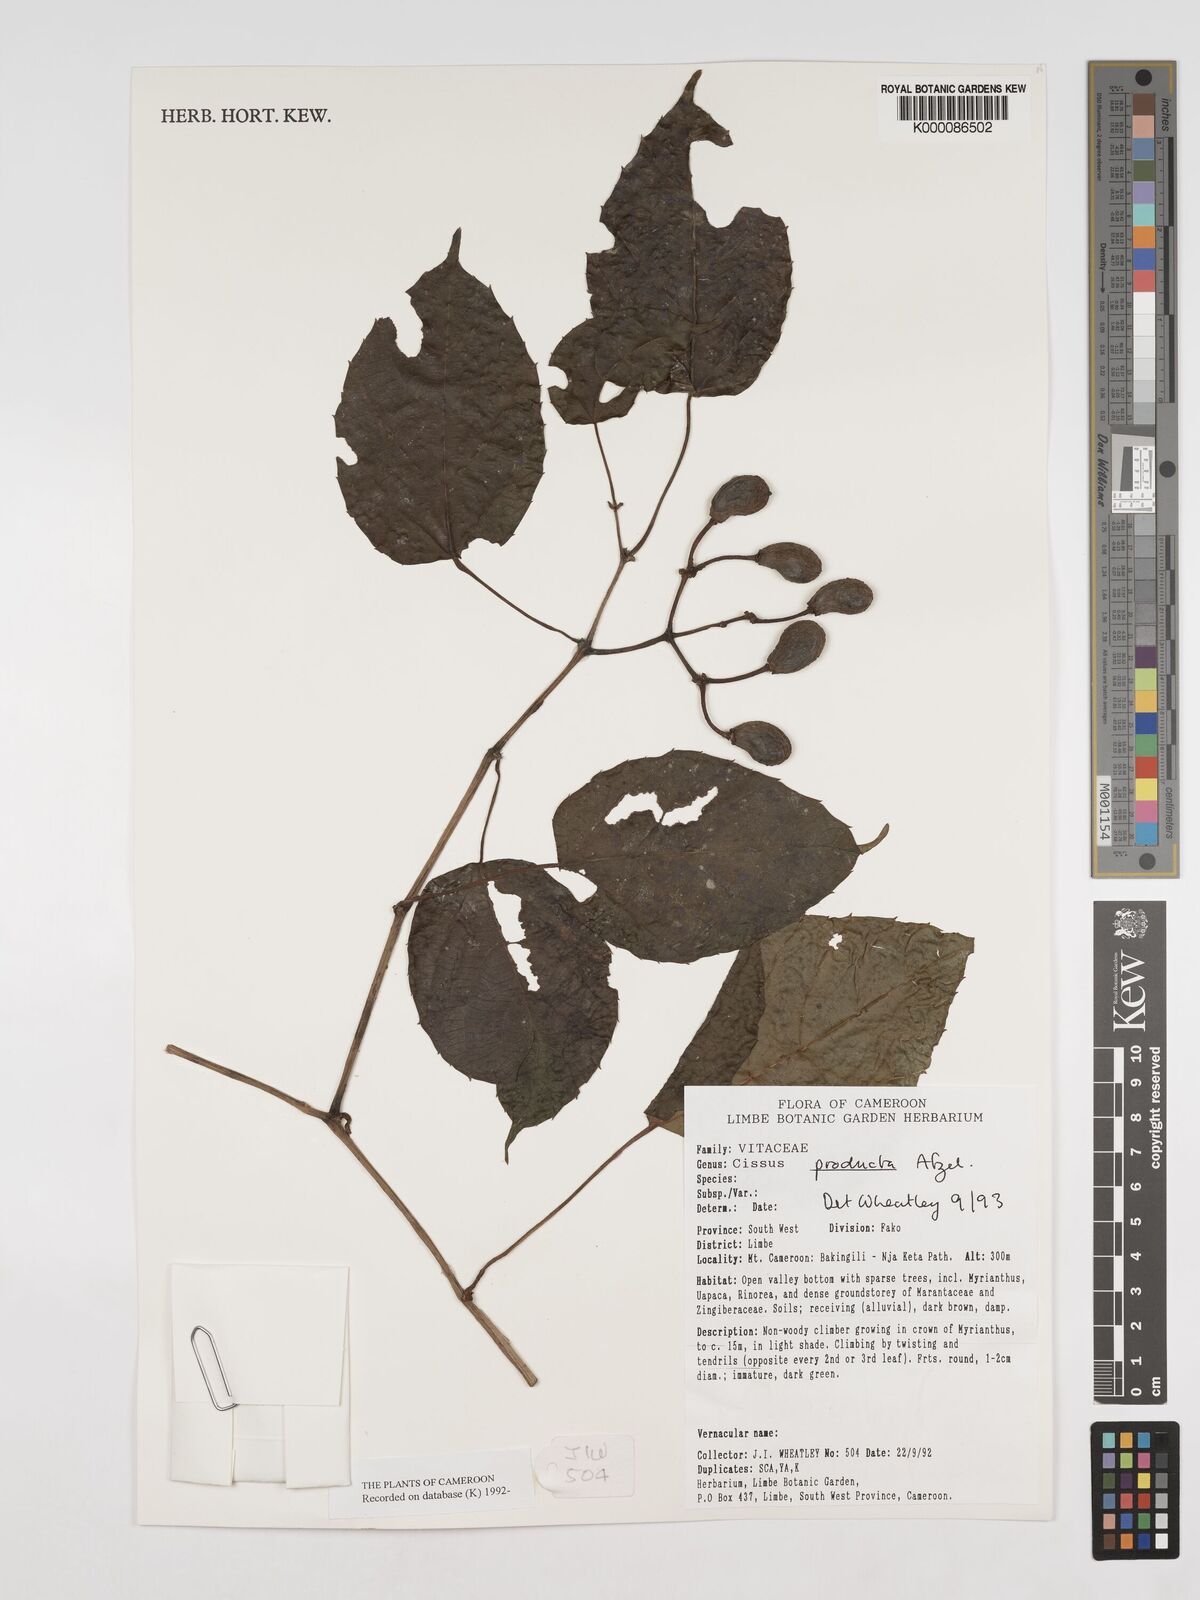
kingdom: Plantae
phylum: Tracheophyta
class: Magnoliopsida
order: Vitales
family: Vitaceae
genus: Cissus
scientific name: Cissus producta
